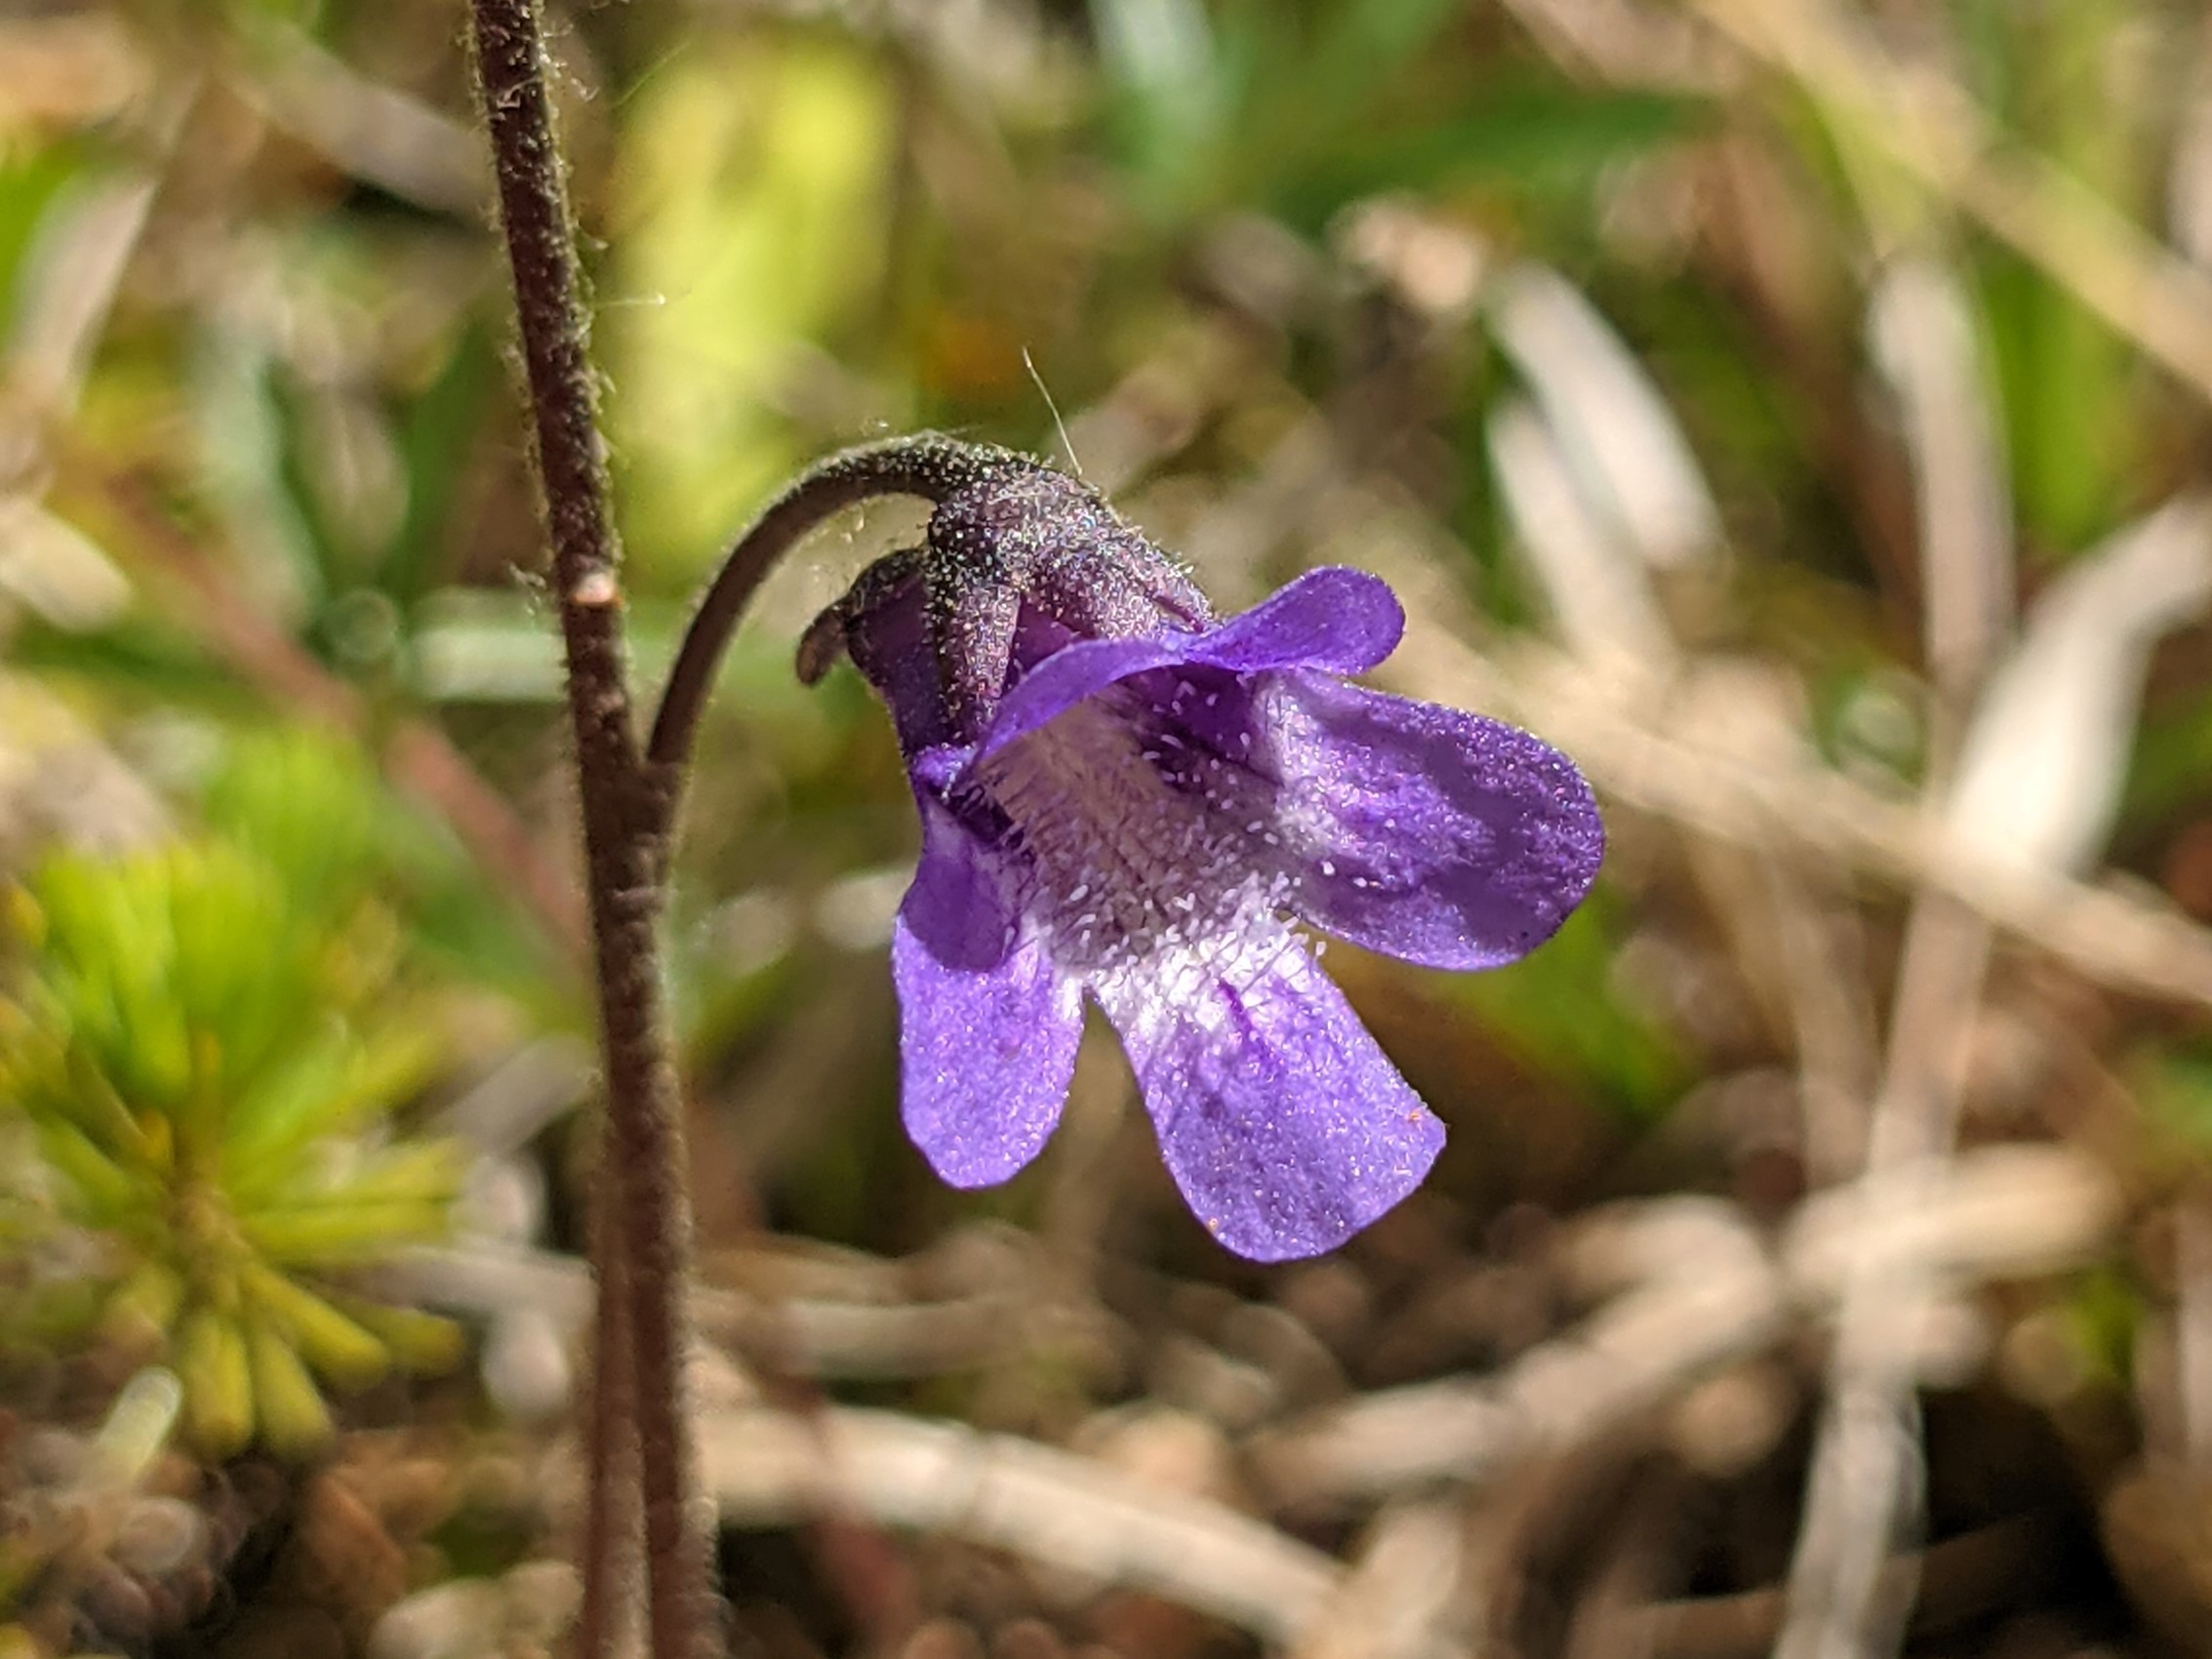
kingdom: Plantae
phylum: Tracheophyta
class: Magnoliopsida
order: Lamiales
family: Lentibulariaceae
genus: Pinguicula
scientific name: Pinguicula vulgaris
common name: Vibefedt
